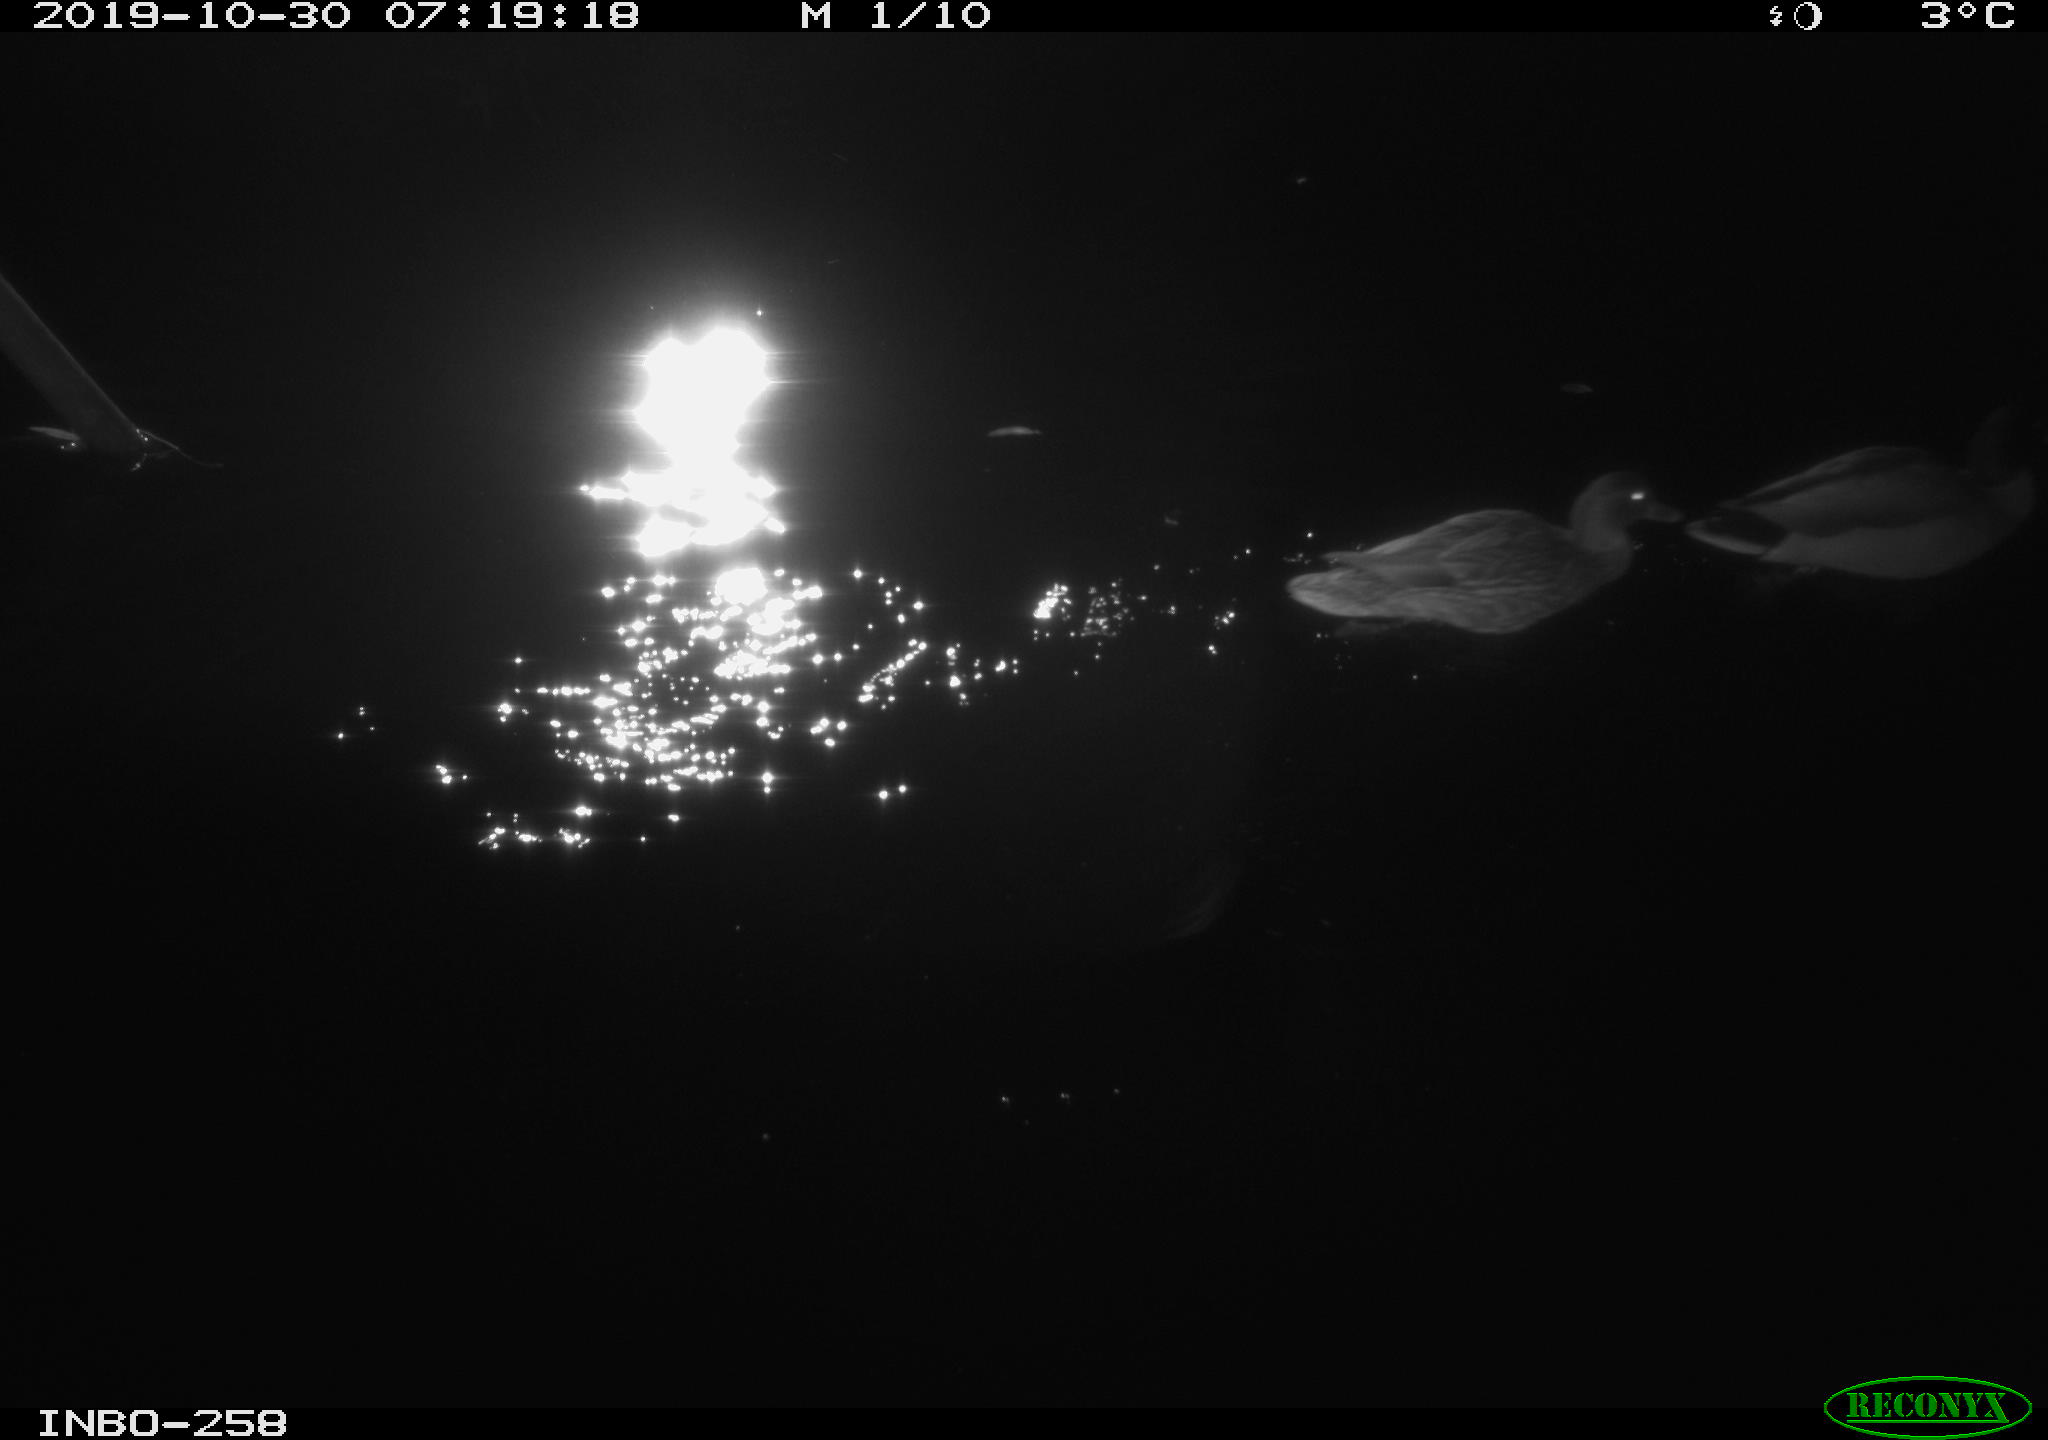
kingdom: Animalia
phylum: Chordata
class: Aves
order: Anseriformes
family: Anatidae
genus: Anas
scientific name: Anas platyrhynchos
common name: Mallard
